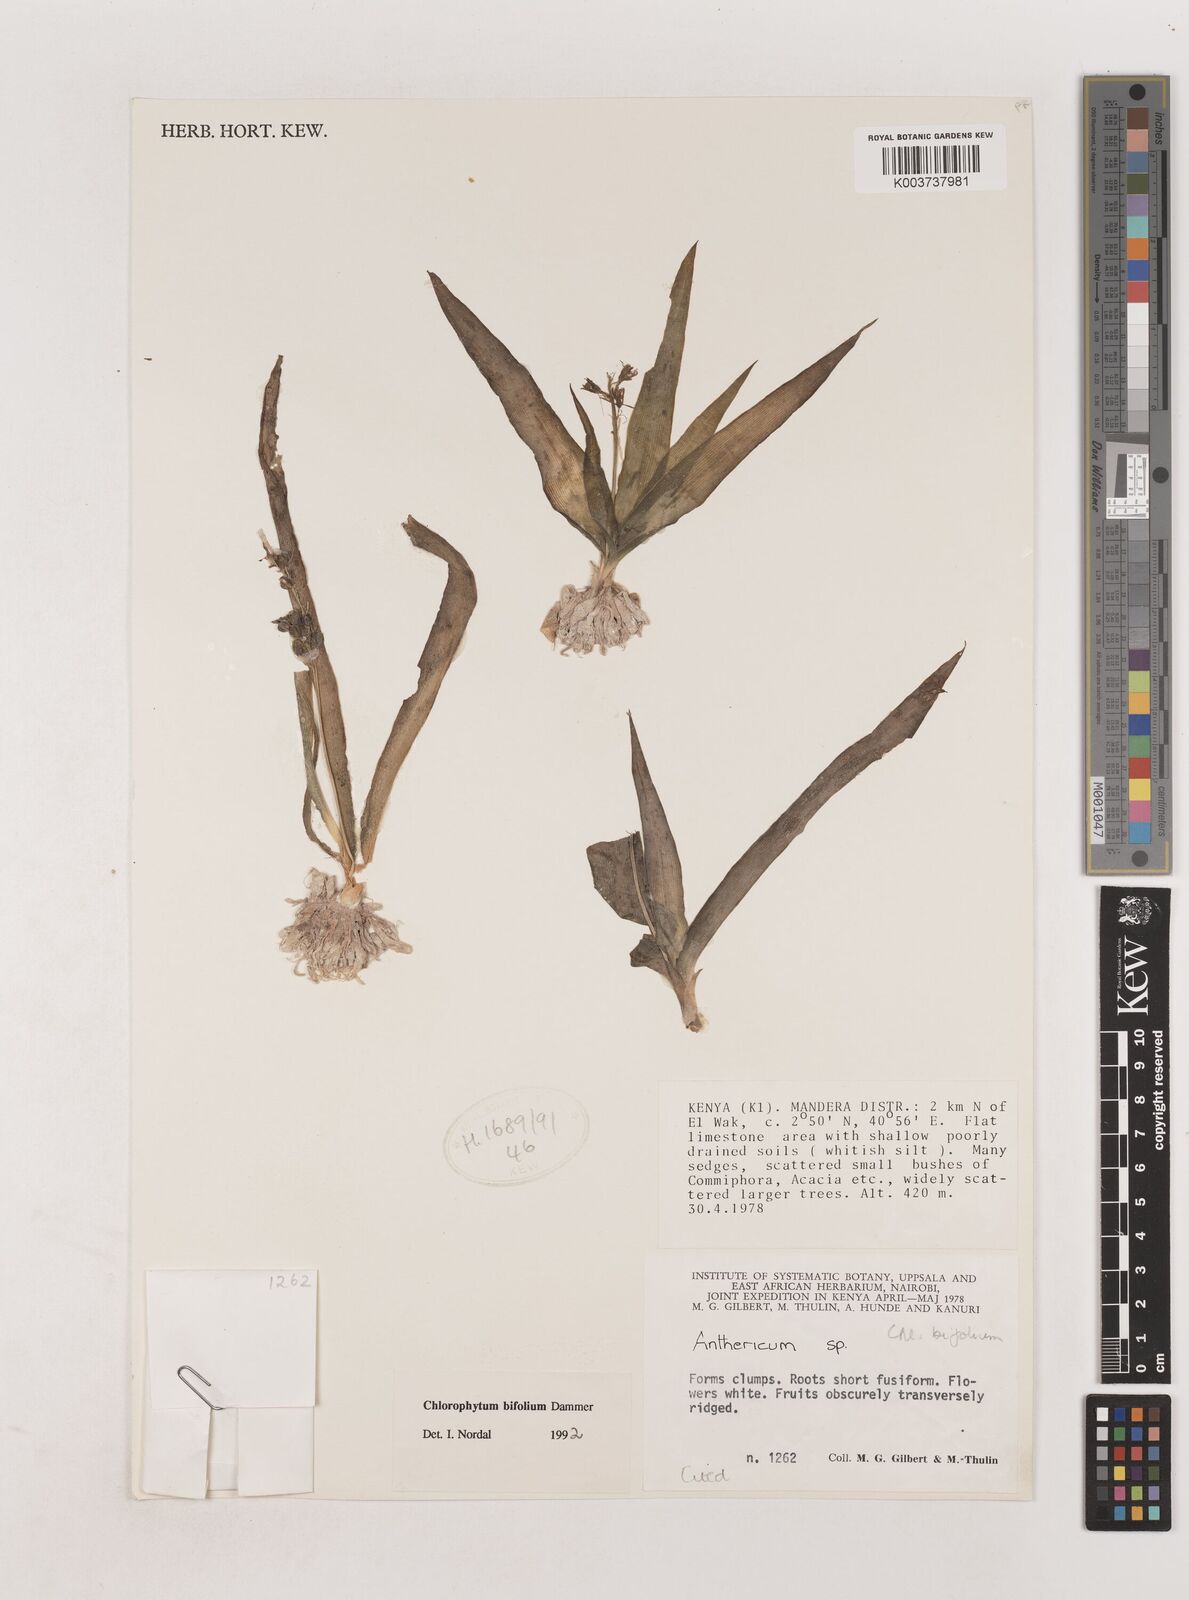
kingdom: Plantae
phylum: Tracheophyta
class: Liliopsida
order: Asparagales
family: Asparagaceae
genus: Chlorophytum
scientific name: Chlorophytum bifolium
